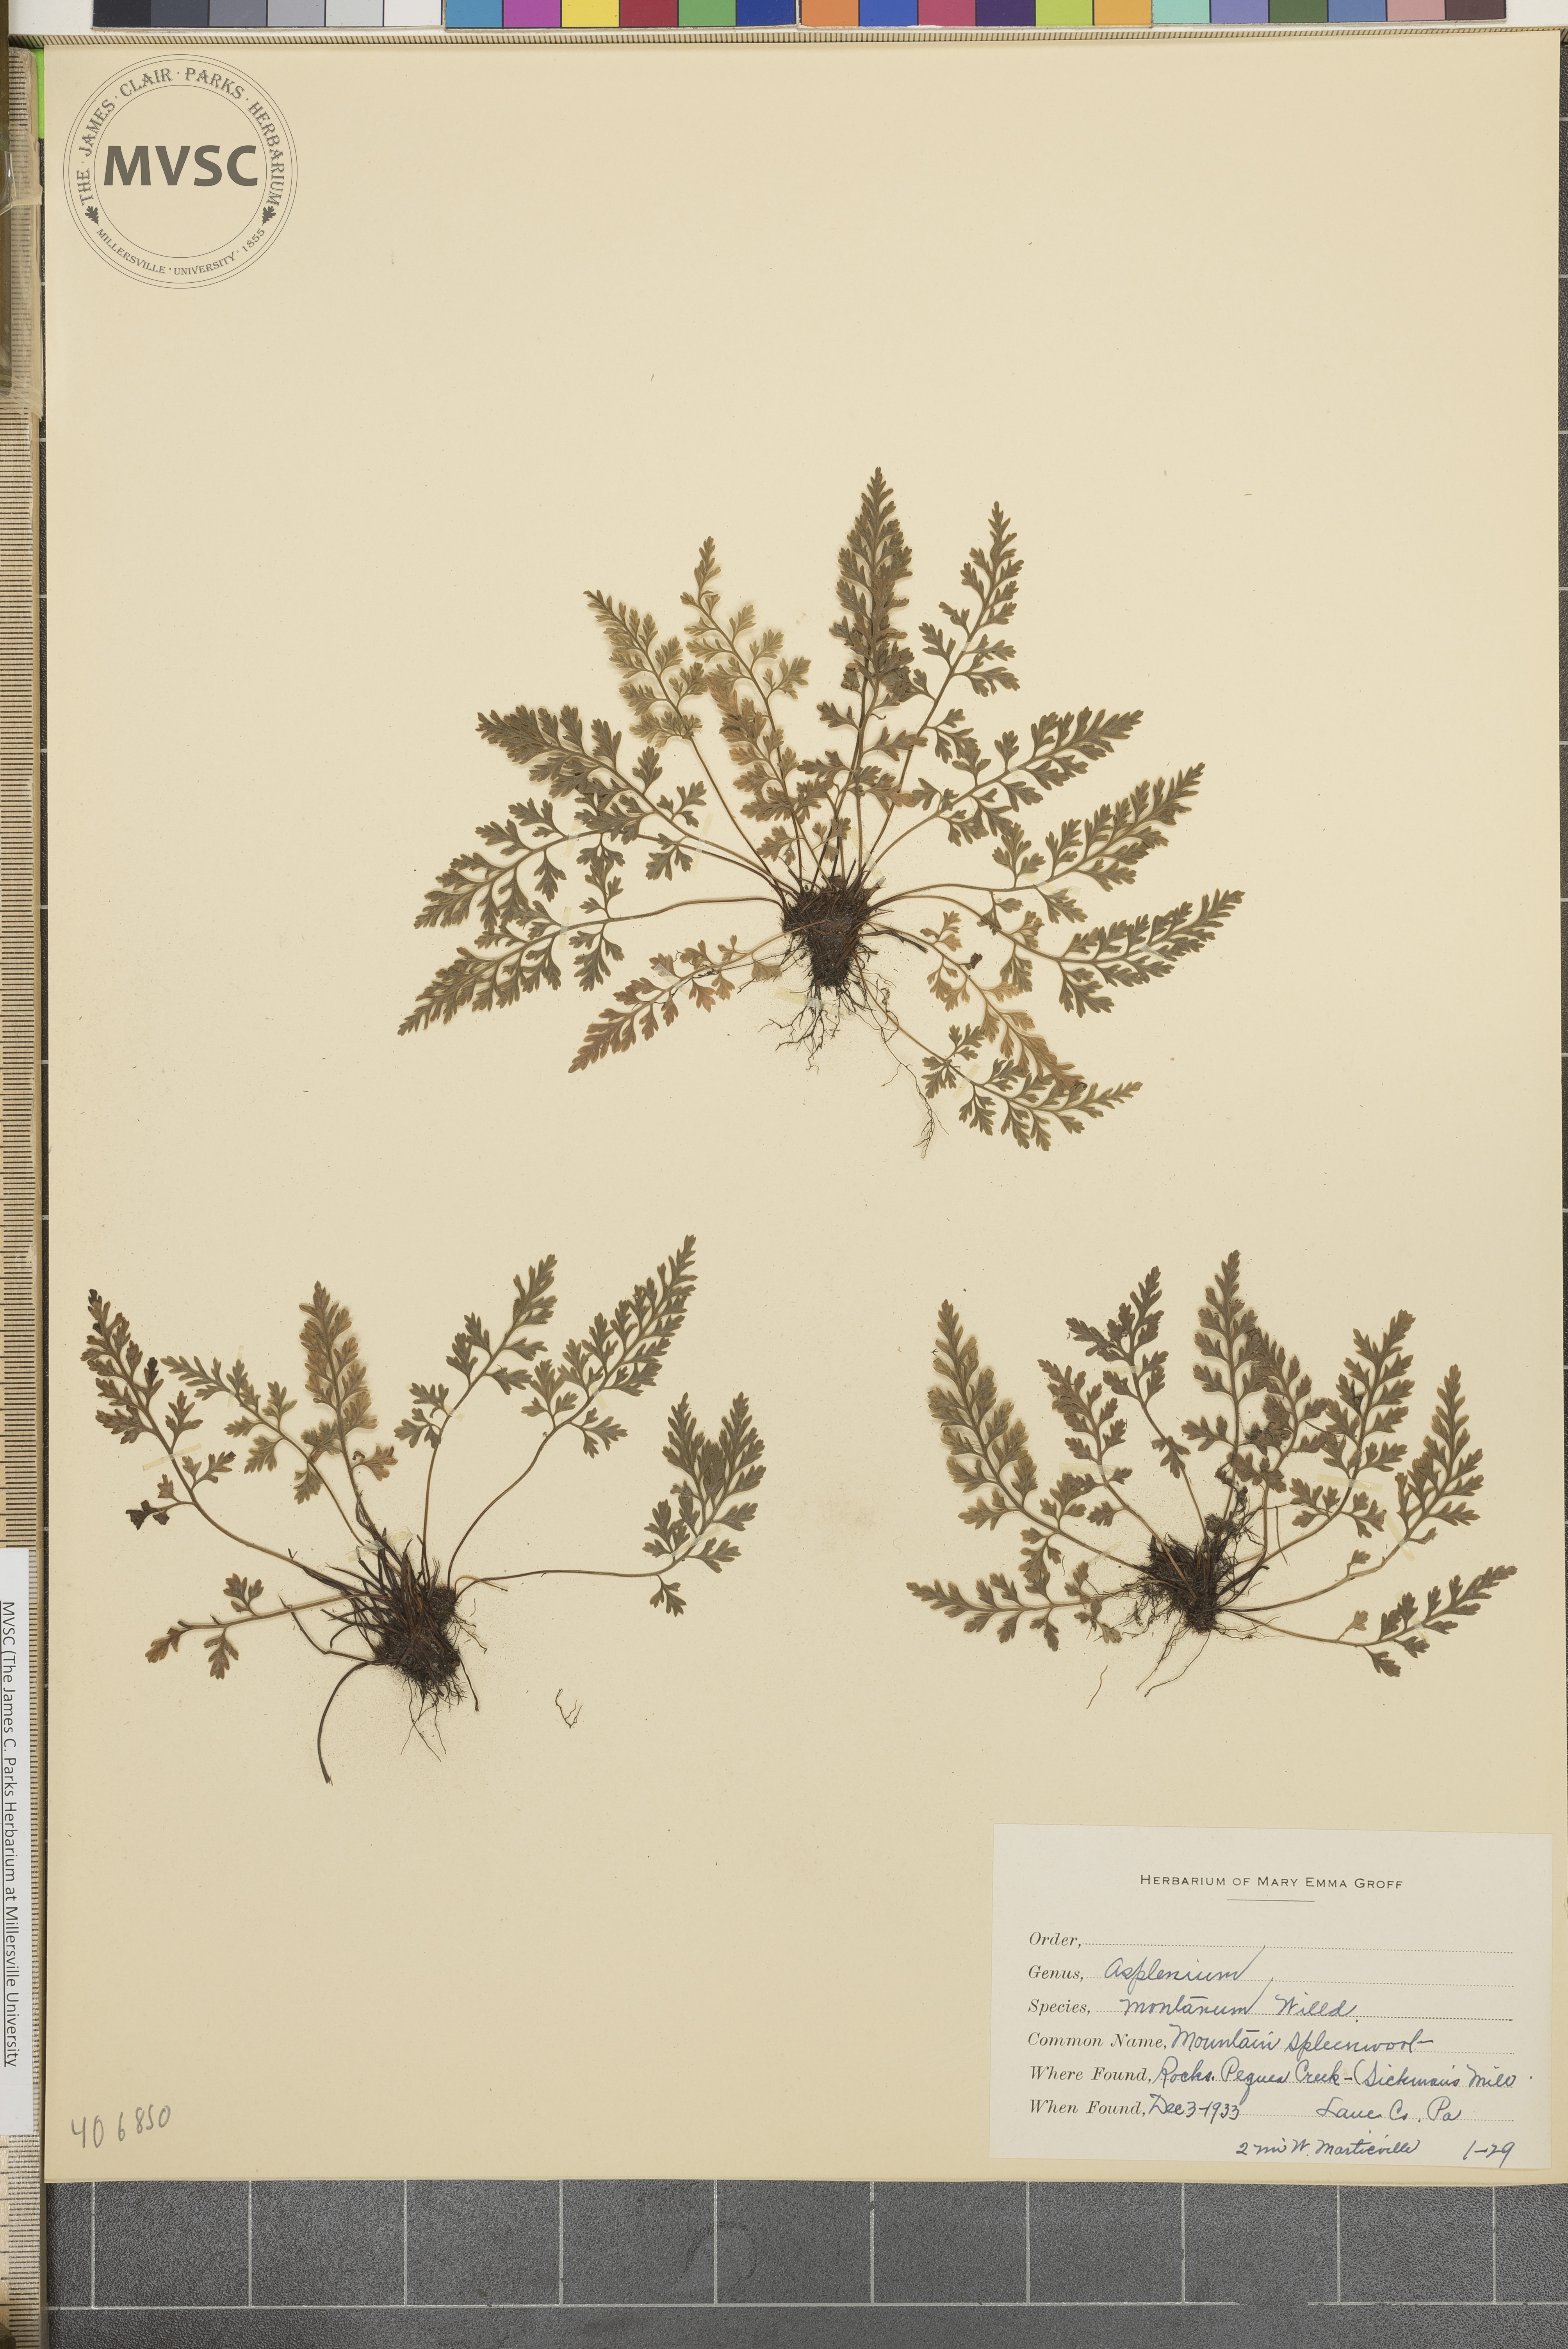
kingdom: Plantae
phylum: Tracheophyta
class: Polypodiopsida
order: Polypodiales
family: Aspleniaceae
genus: Asplenium
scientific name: Asplenium montanum
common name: Mountain spleenwort
